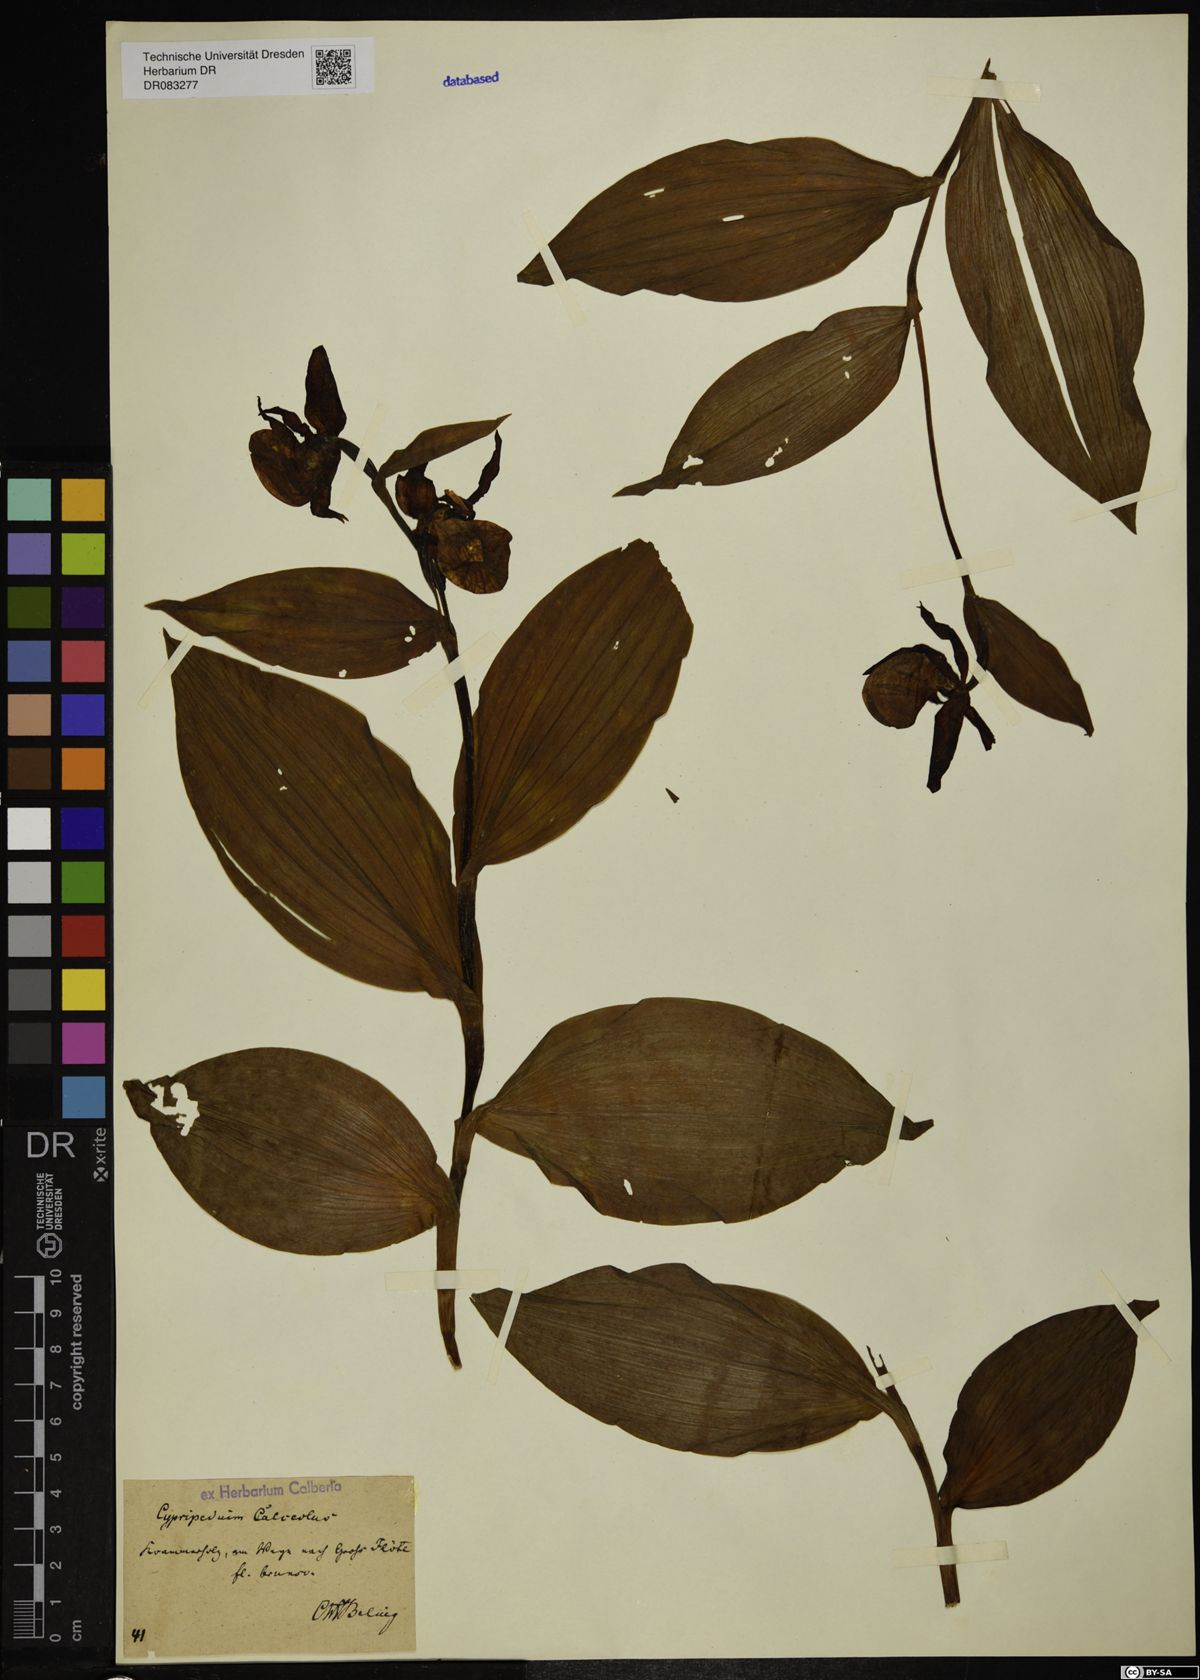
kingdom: Plantae
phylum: Tracheophyta
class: Liliopsida
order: Asparagales
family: Orchidaceae
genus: Cypripedium
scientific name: Cypripedium calceolus
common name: Lady's-slipper
